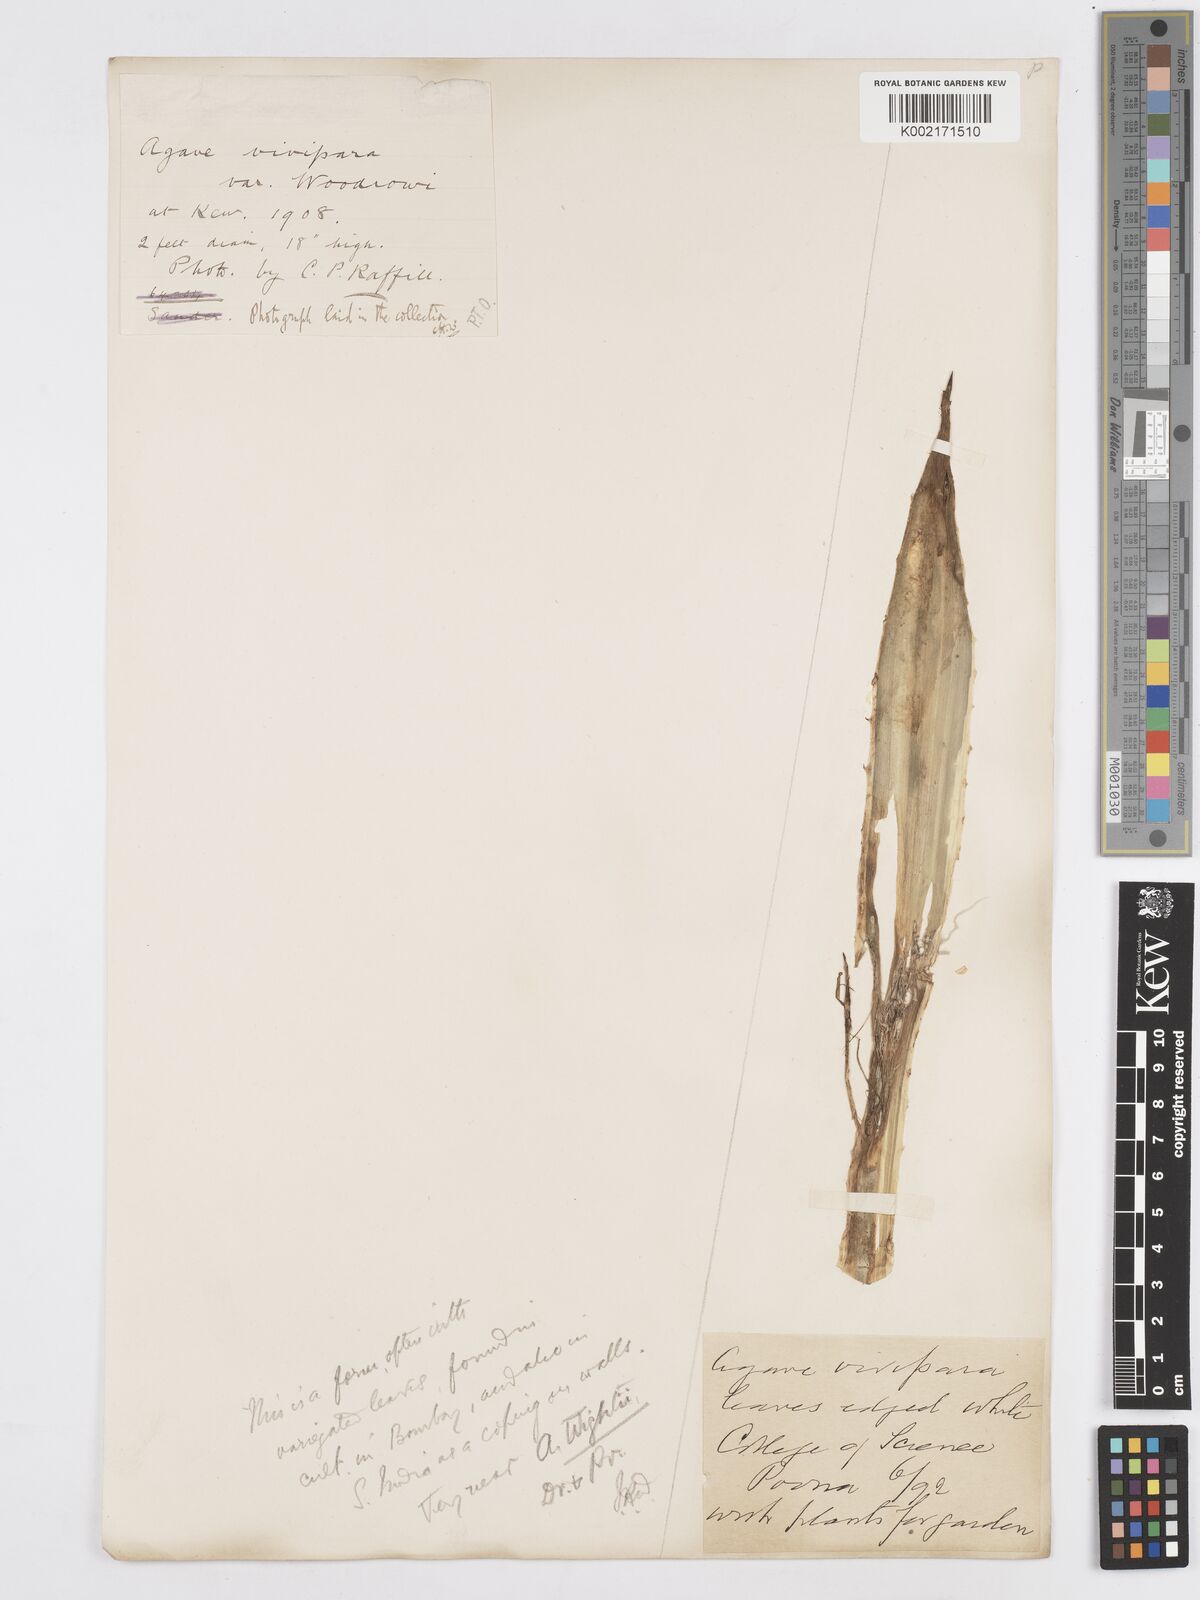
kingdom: Plantae
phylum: Tracheophyta
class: Liliopsida
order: Asparagales
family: Asparagaceae
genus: Agave
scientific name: Agave angustifolia
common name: Mescal agave
